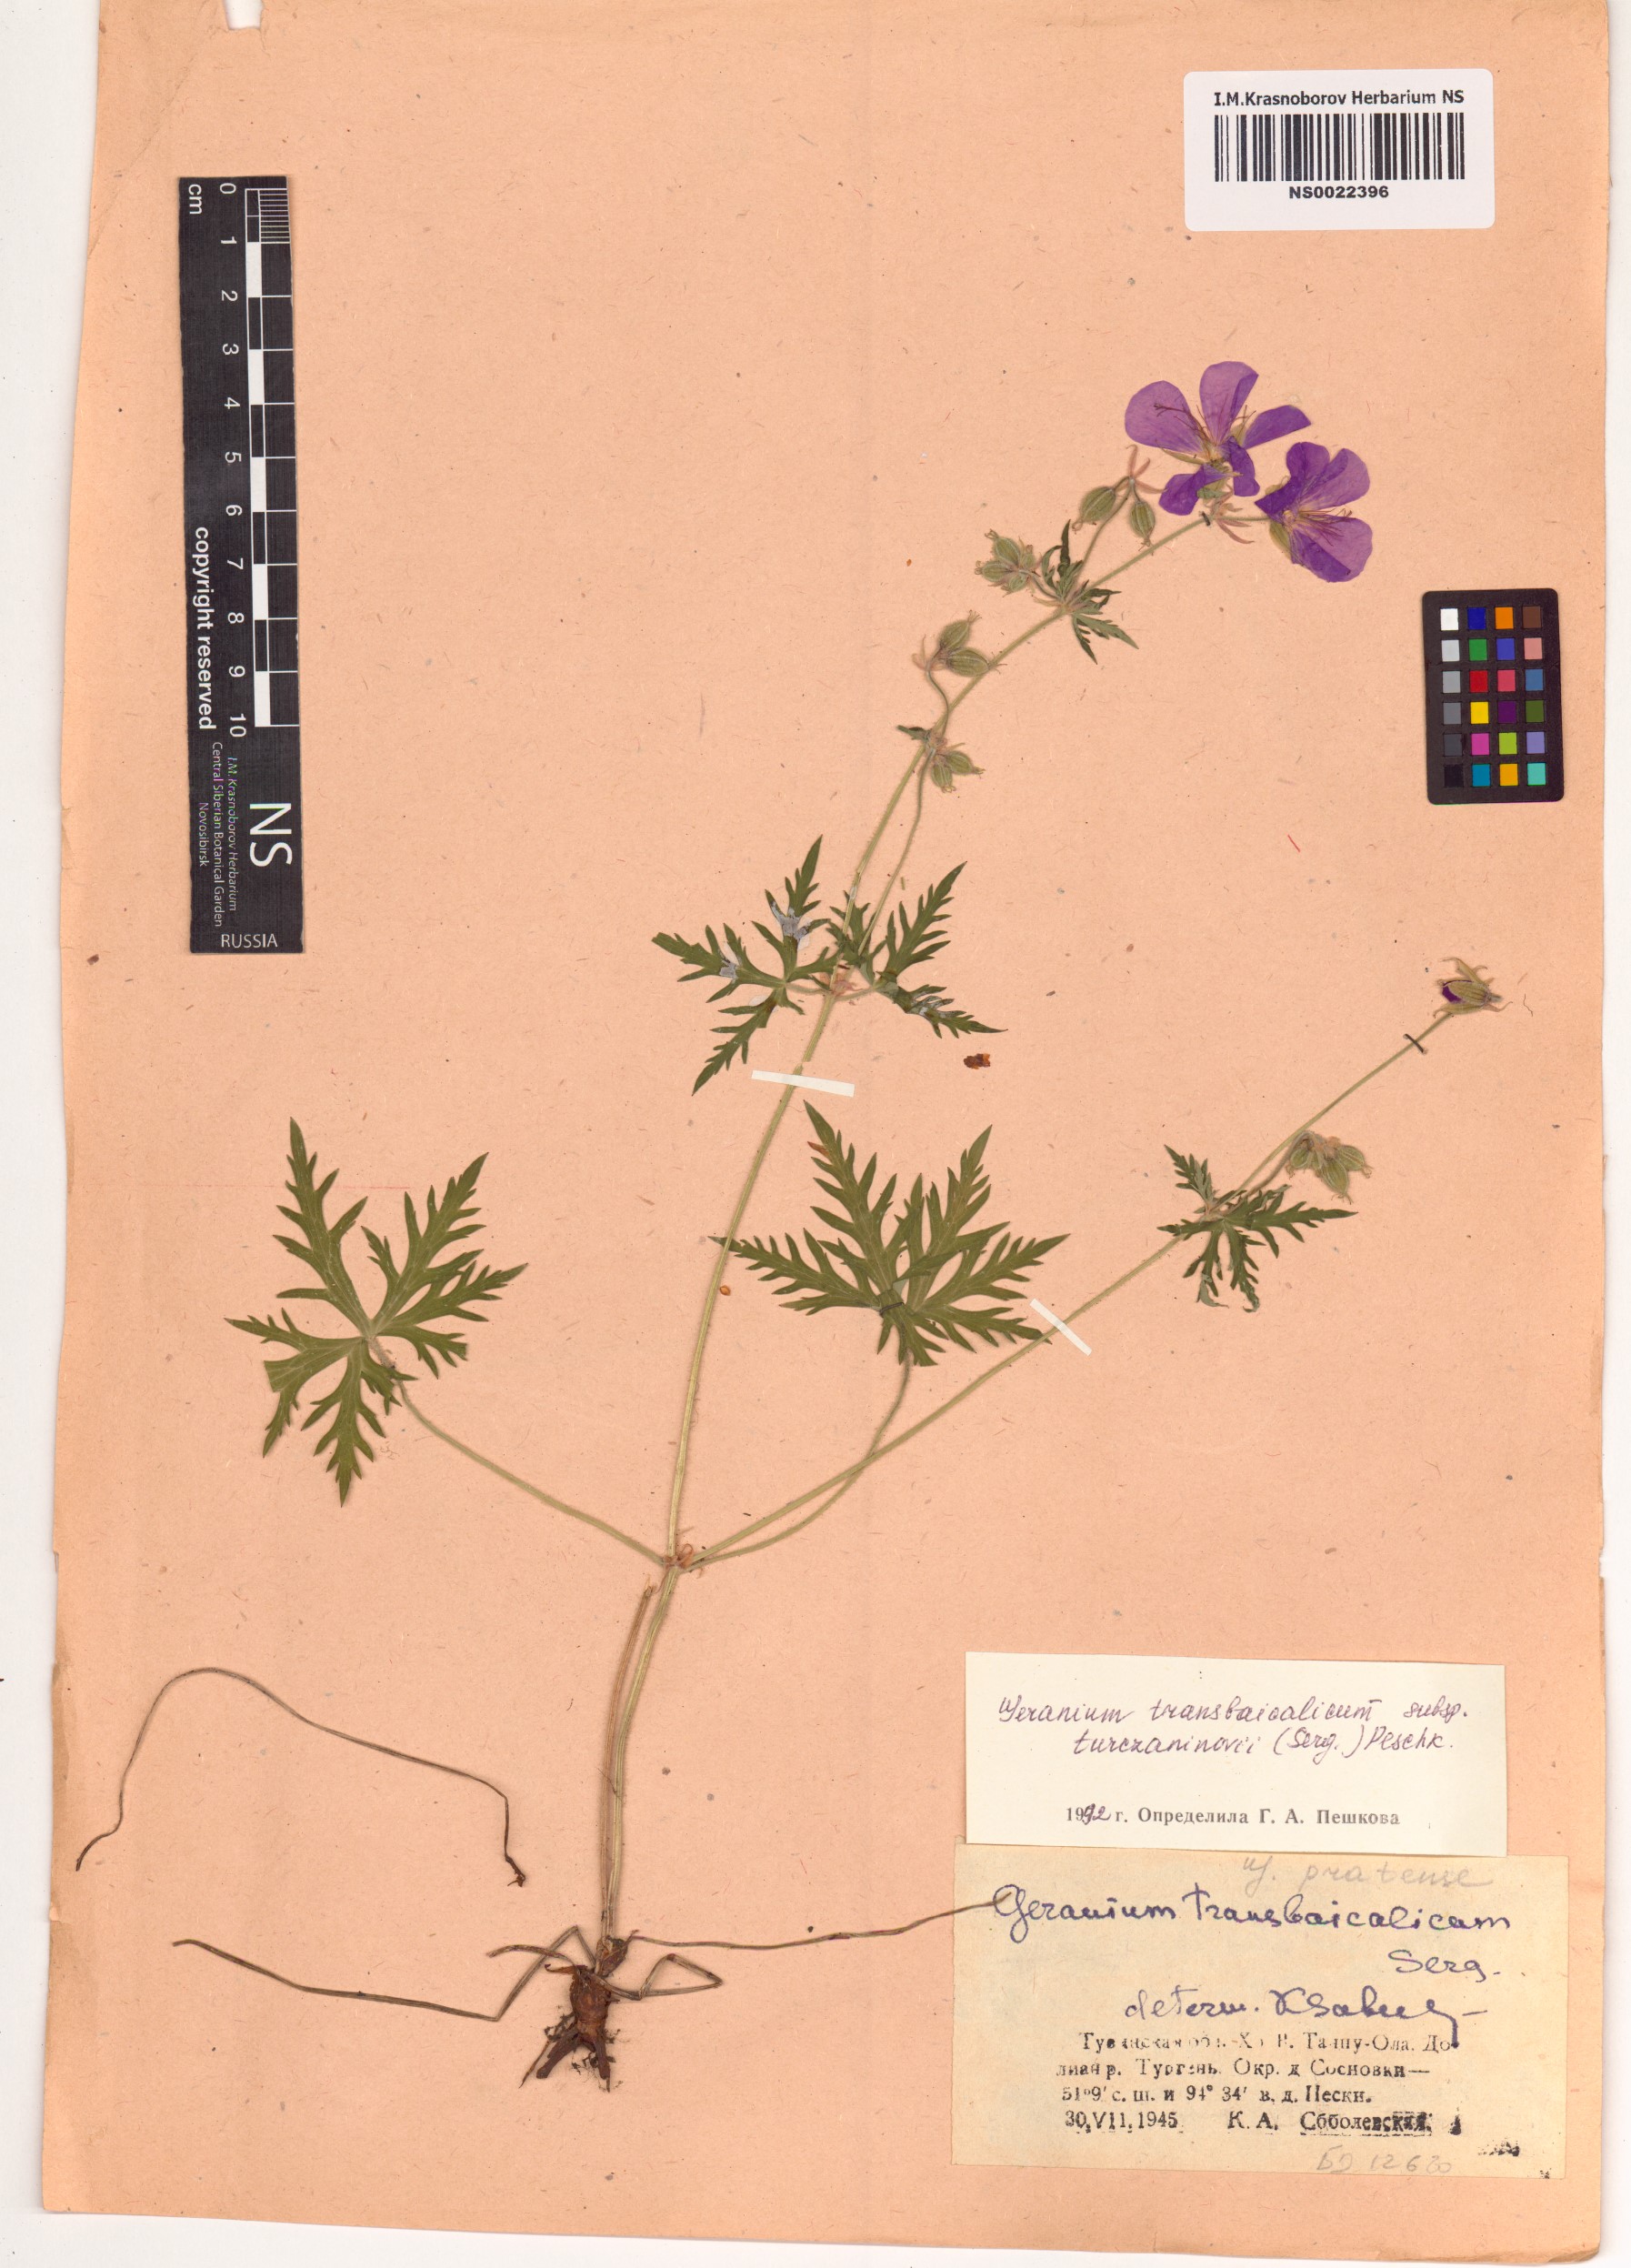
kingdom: Plantae
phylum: Tracheophyta
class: Magnoliopsida
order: Geraniales
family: Geraniaceae
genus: Geranium
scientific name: Geranium pratense
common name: Meadow crane's-bill
